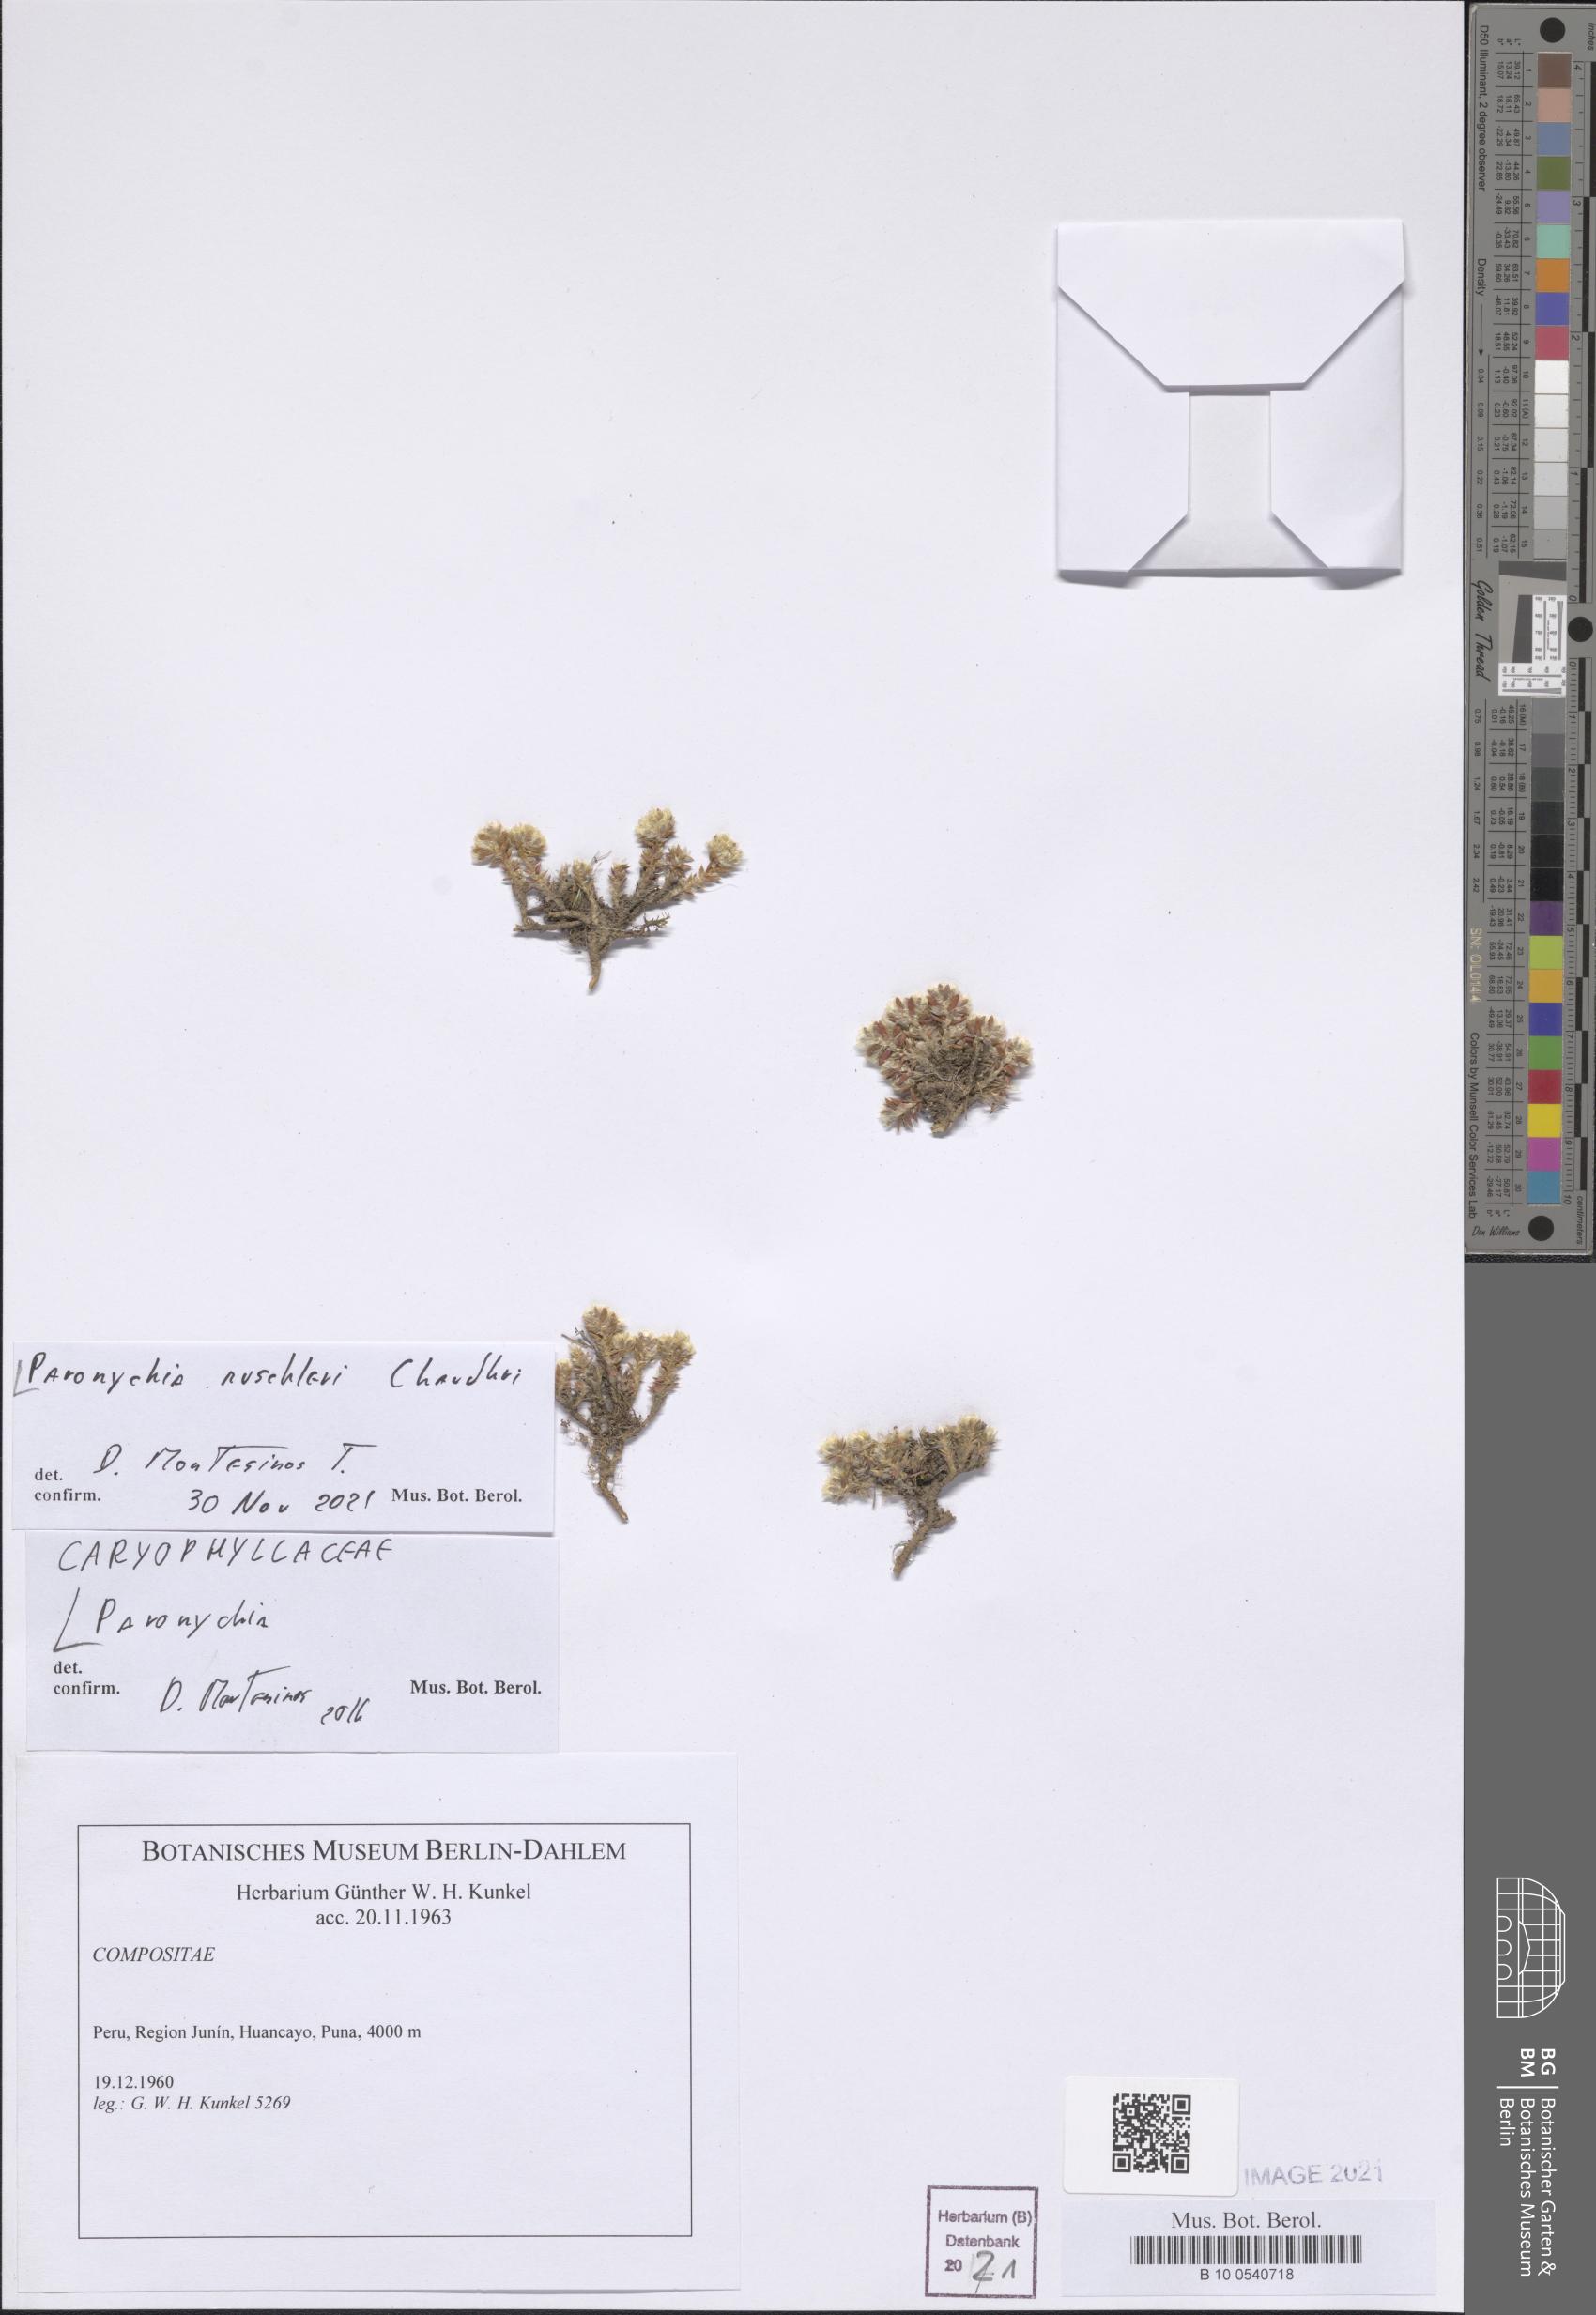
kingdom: Plantae
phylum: Tracheophyta
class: Magnoliopsida
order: Caryophyllales
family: Caryophyllaceae
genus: Paronychia
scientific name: Paronychia muschleri
